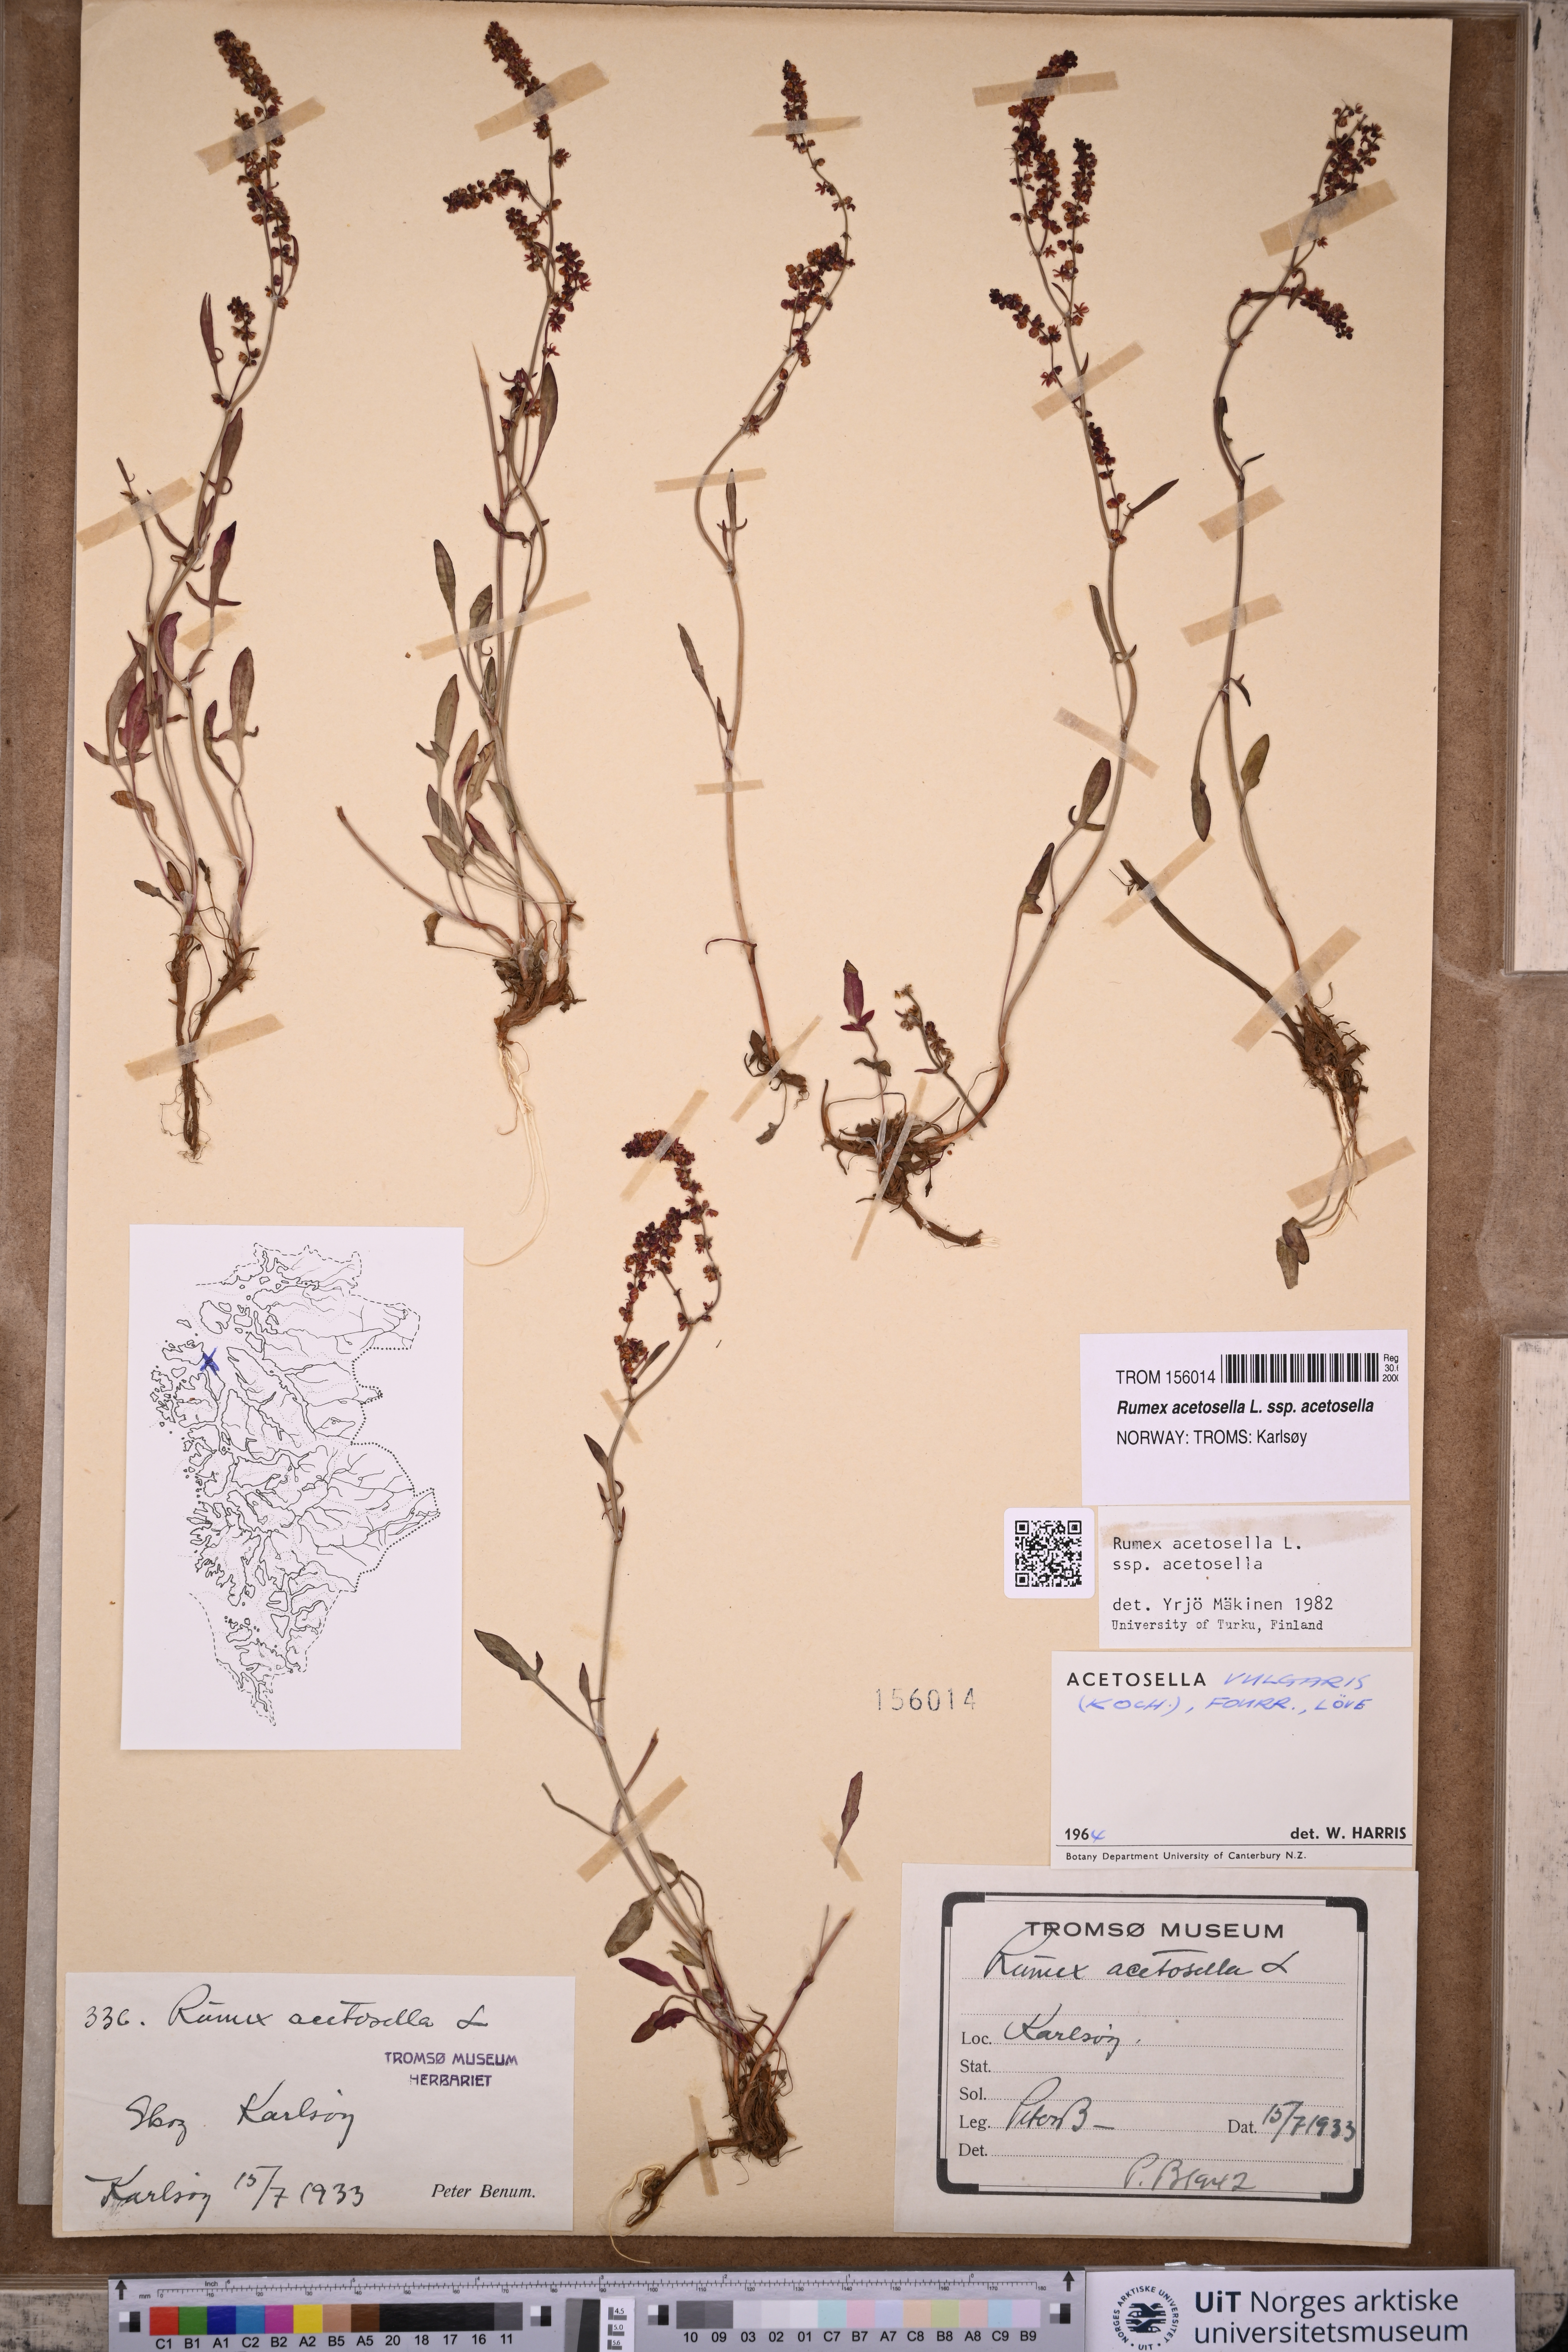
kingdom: Plantae
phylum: Tracheophyta
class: Magnoliopsida
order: Caryophyllales
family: Polygonaceae
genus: Rumex
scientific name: Rumex acetosella
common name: Common sheep sorrel
